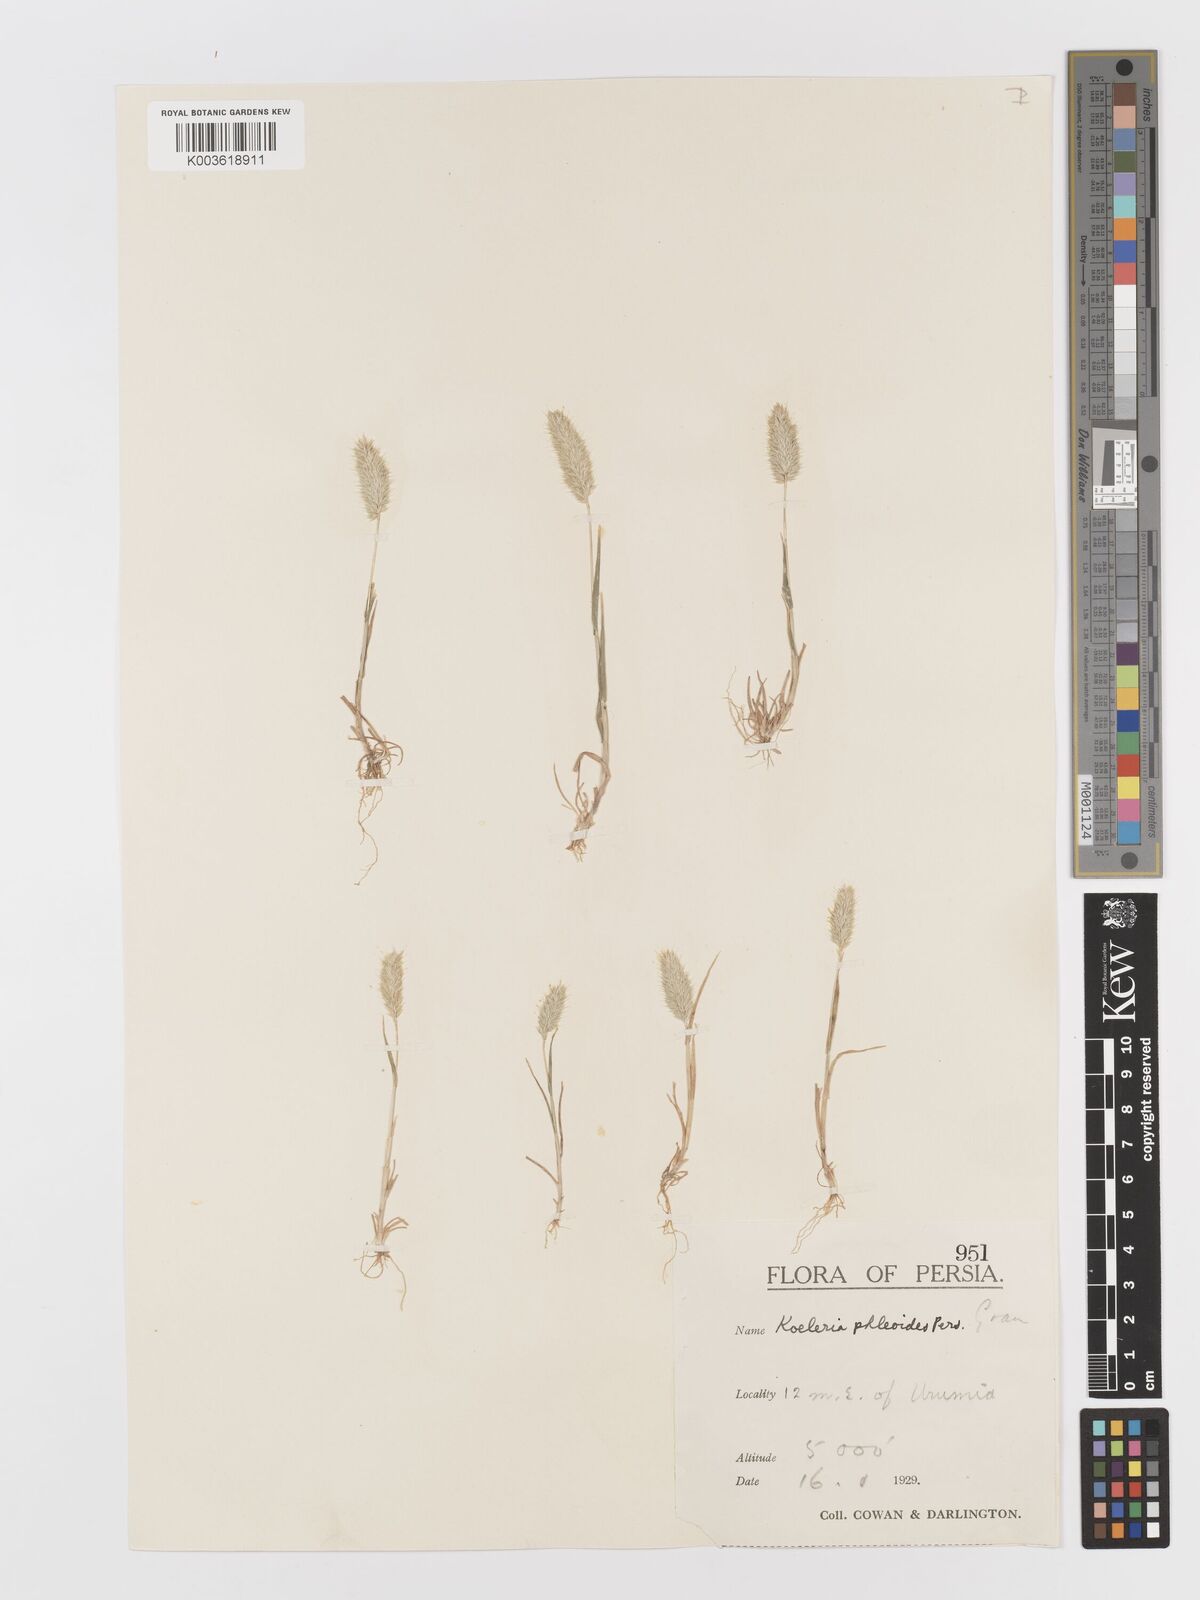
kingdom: Plantae
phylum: Tracheophyta
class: Liliopsida
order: Poales
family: Poaceae
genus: Rostraria
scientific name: Rostraria cristata
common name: Mediterranean hair-grass
